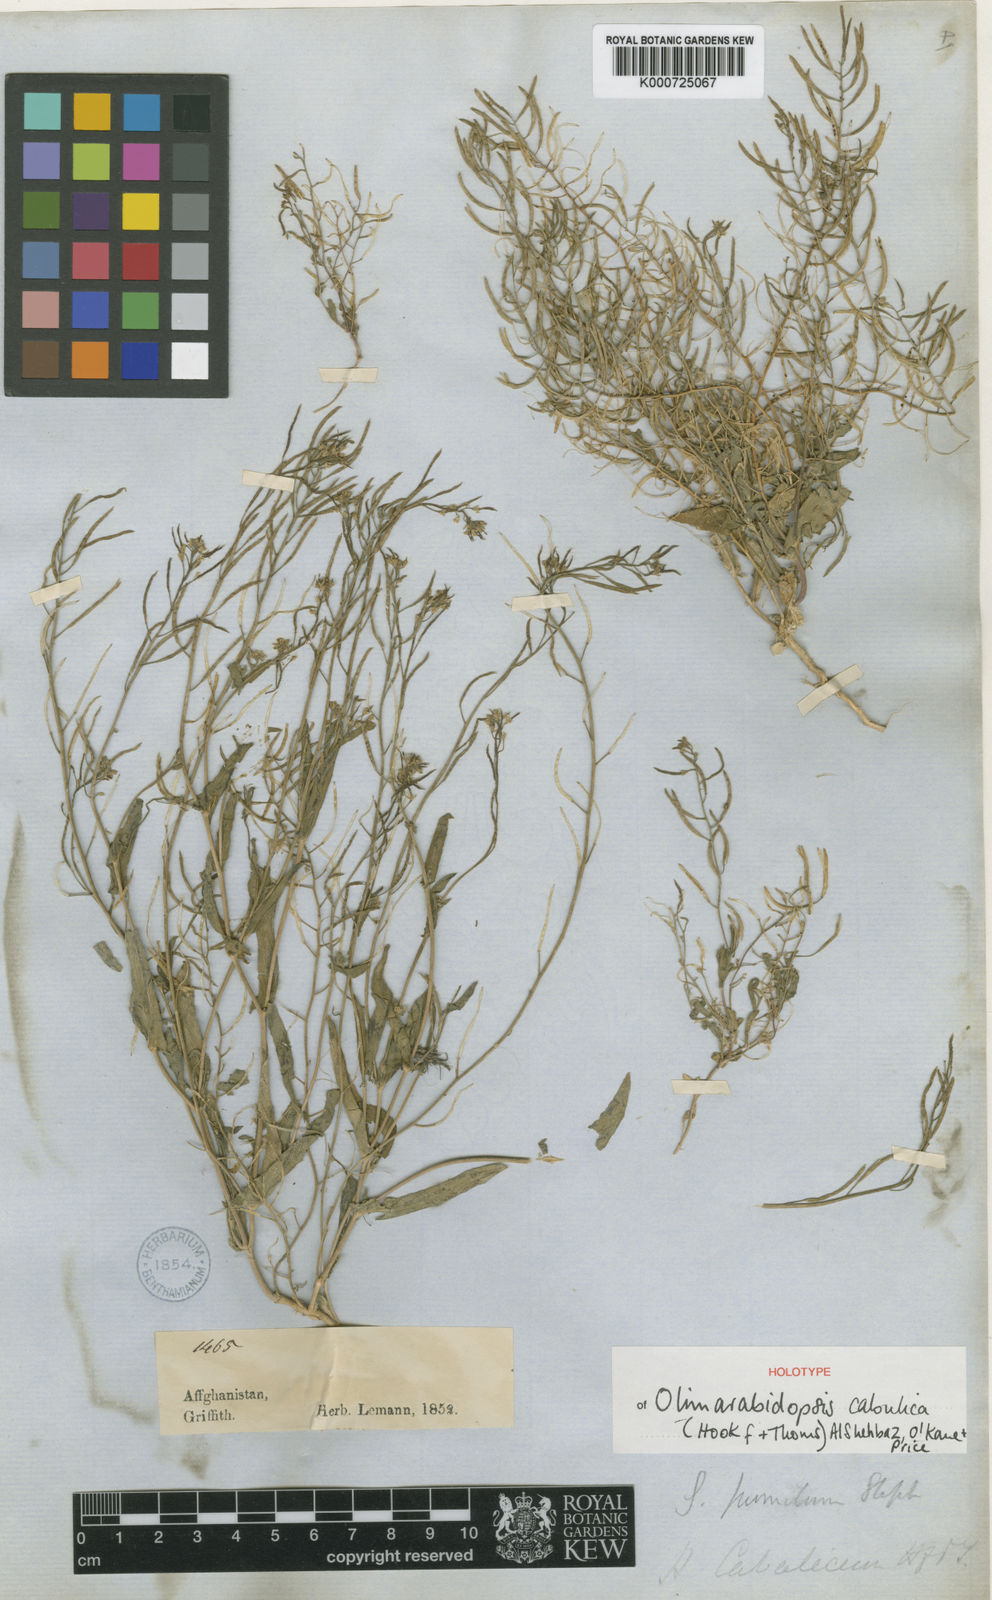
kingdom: Plantae
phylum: Tracheophyta
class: Magnoliopsida
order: Brassicales
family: Brassicaceae
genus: Olimarabidopsis
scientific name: Olimarabidopsis
